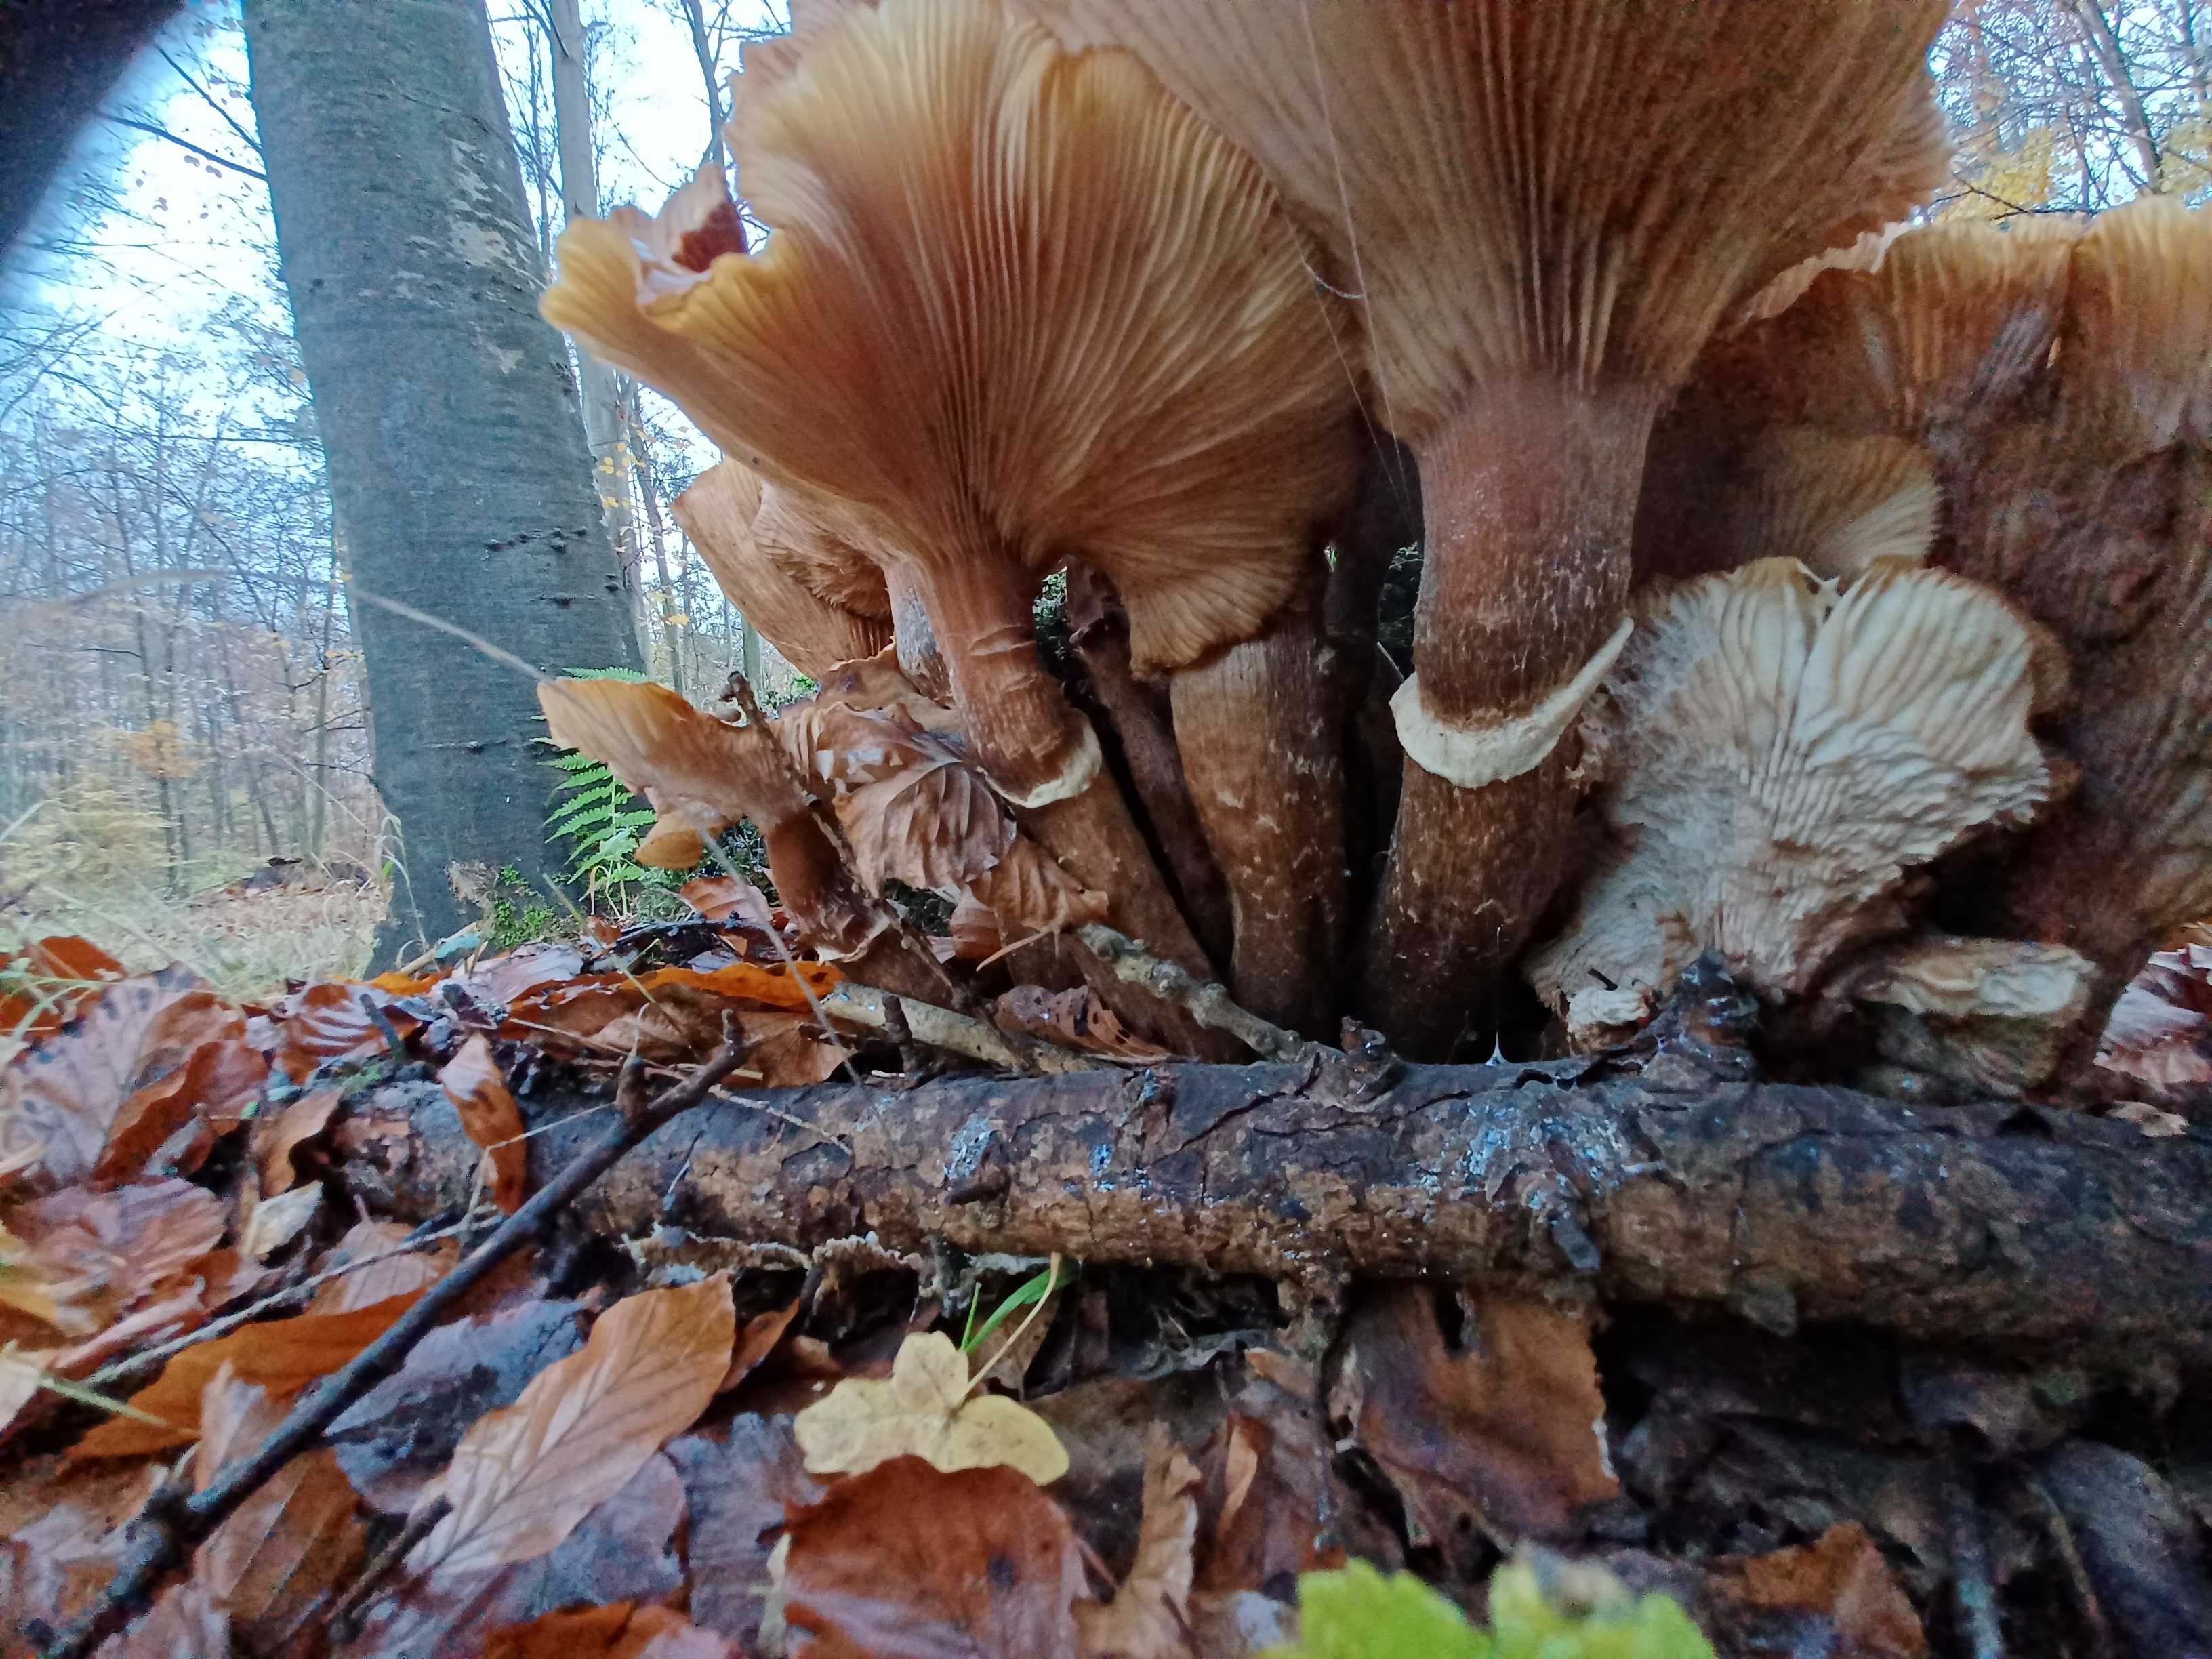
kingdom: Fungi
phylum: Basidiomycota
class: Agaricomycetes
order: Agaricales
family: Physalacriaceae
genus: Armillaria
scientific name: Armillaria mellea
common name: ægte honningsvamp
